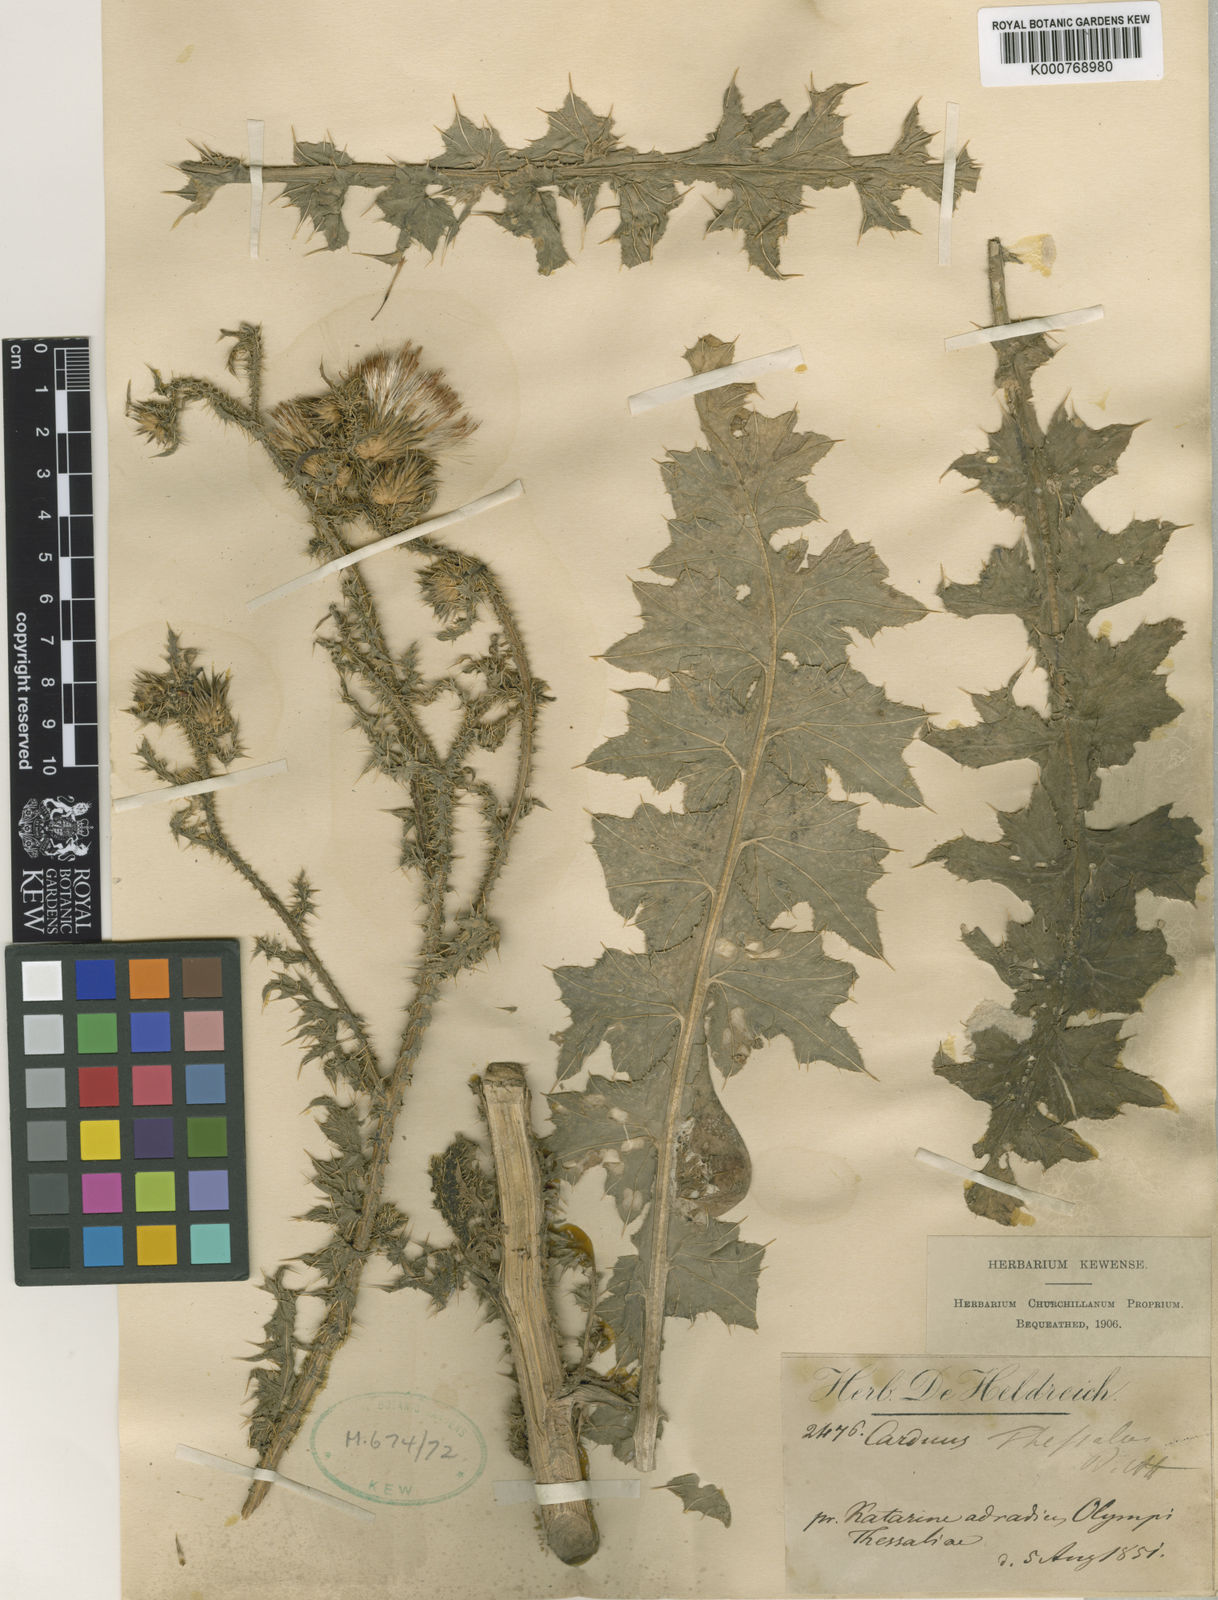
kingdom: Plantae
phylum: Tracheophyta
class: Magnoliopsida
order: Asterales
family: Asteraceae
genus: Carduus
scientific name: Carduus acanthoides
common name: Plumeless thistle
